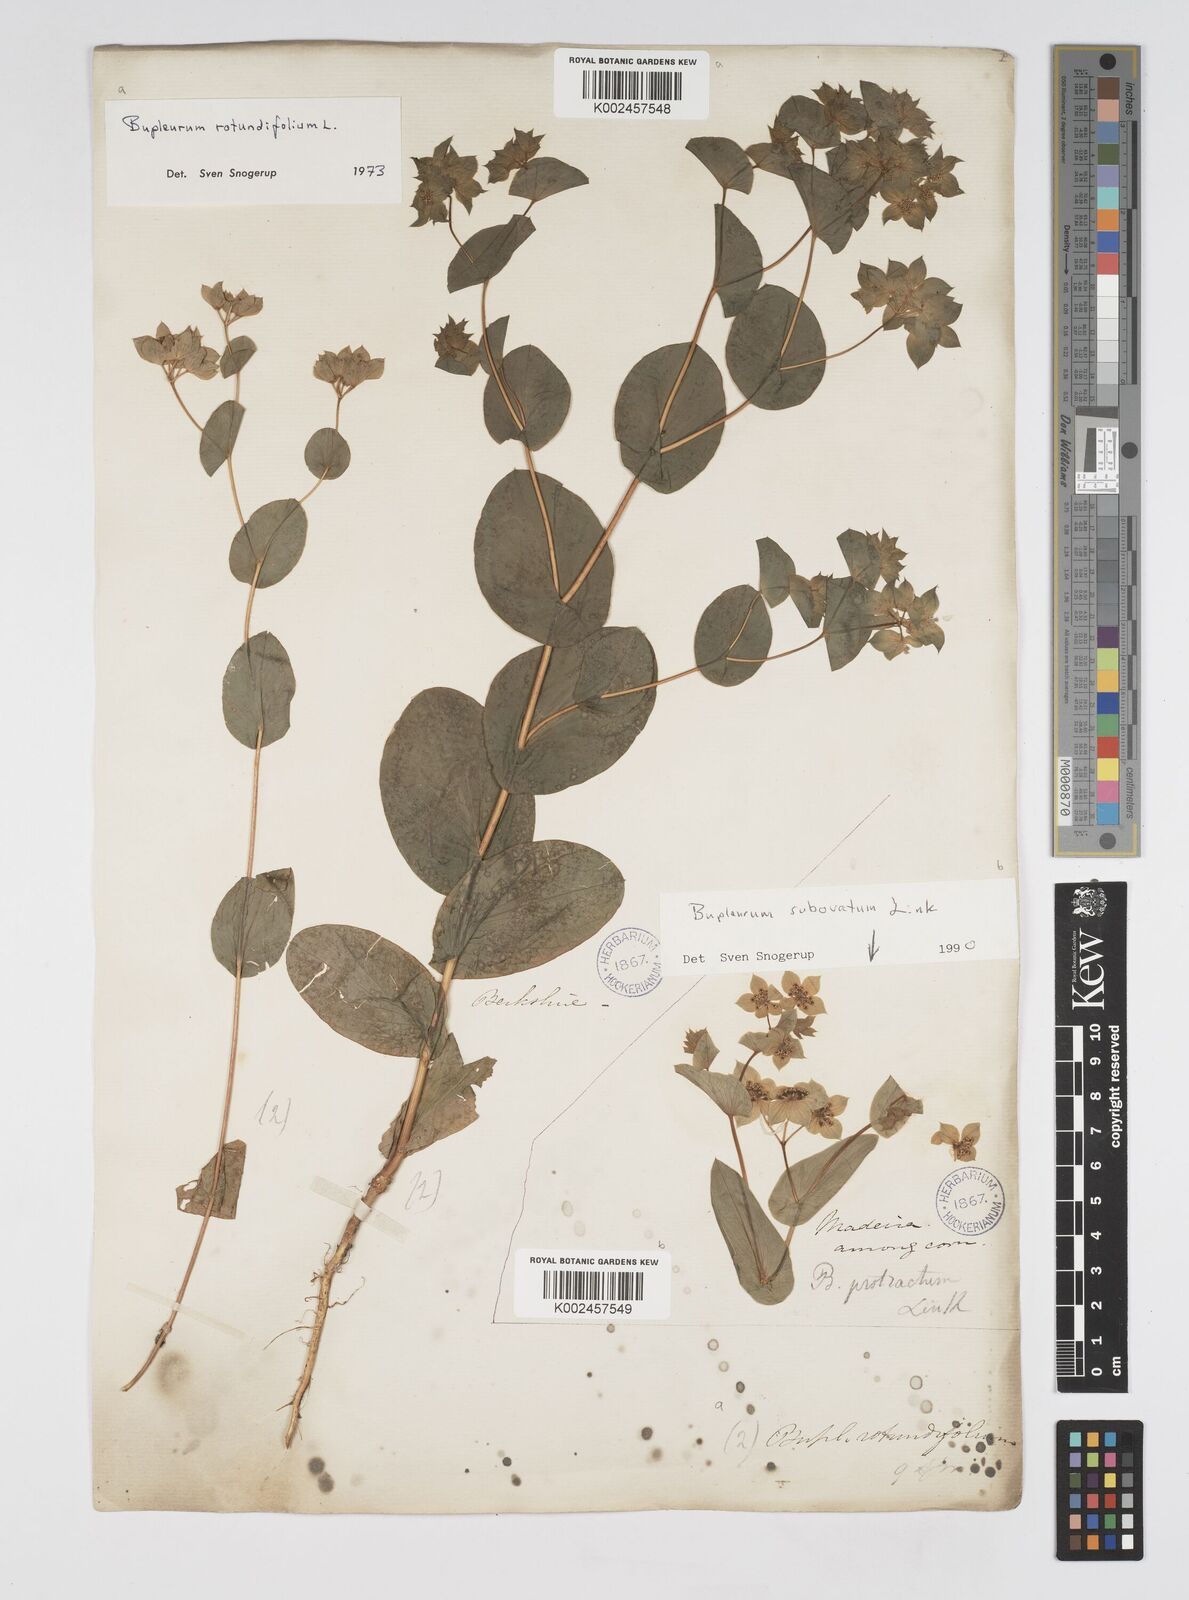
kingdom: Plantae
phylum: Tracheophyta
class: Magnoliopsida
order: Apiales
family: Apiaceae
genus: Bupleurum
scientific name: Bupleurum rotundifolium
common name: Thorow-wax
